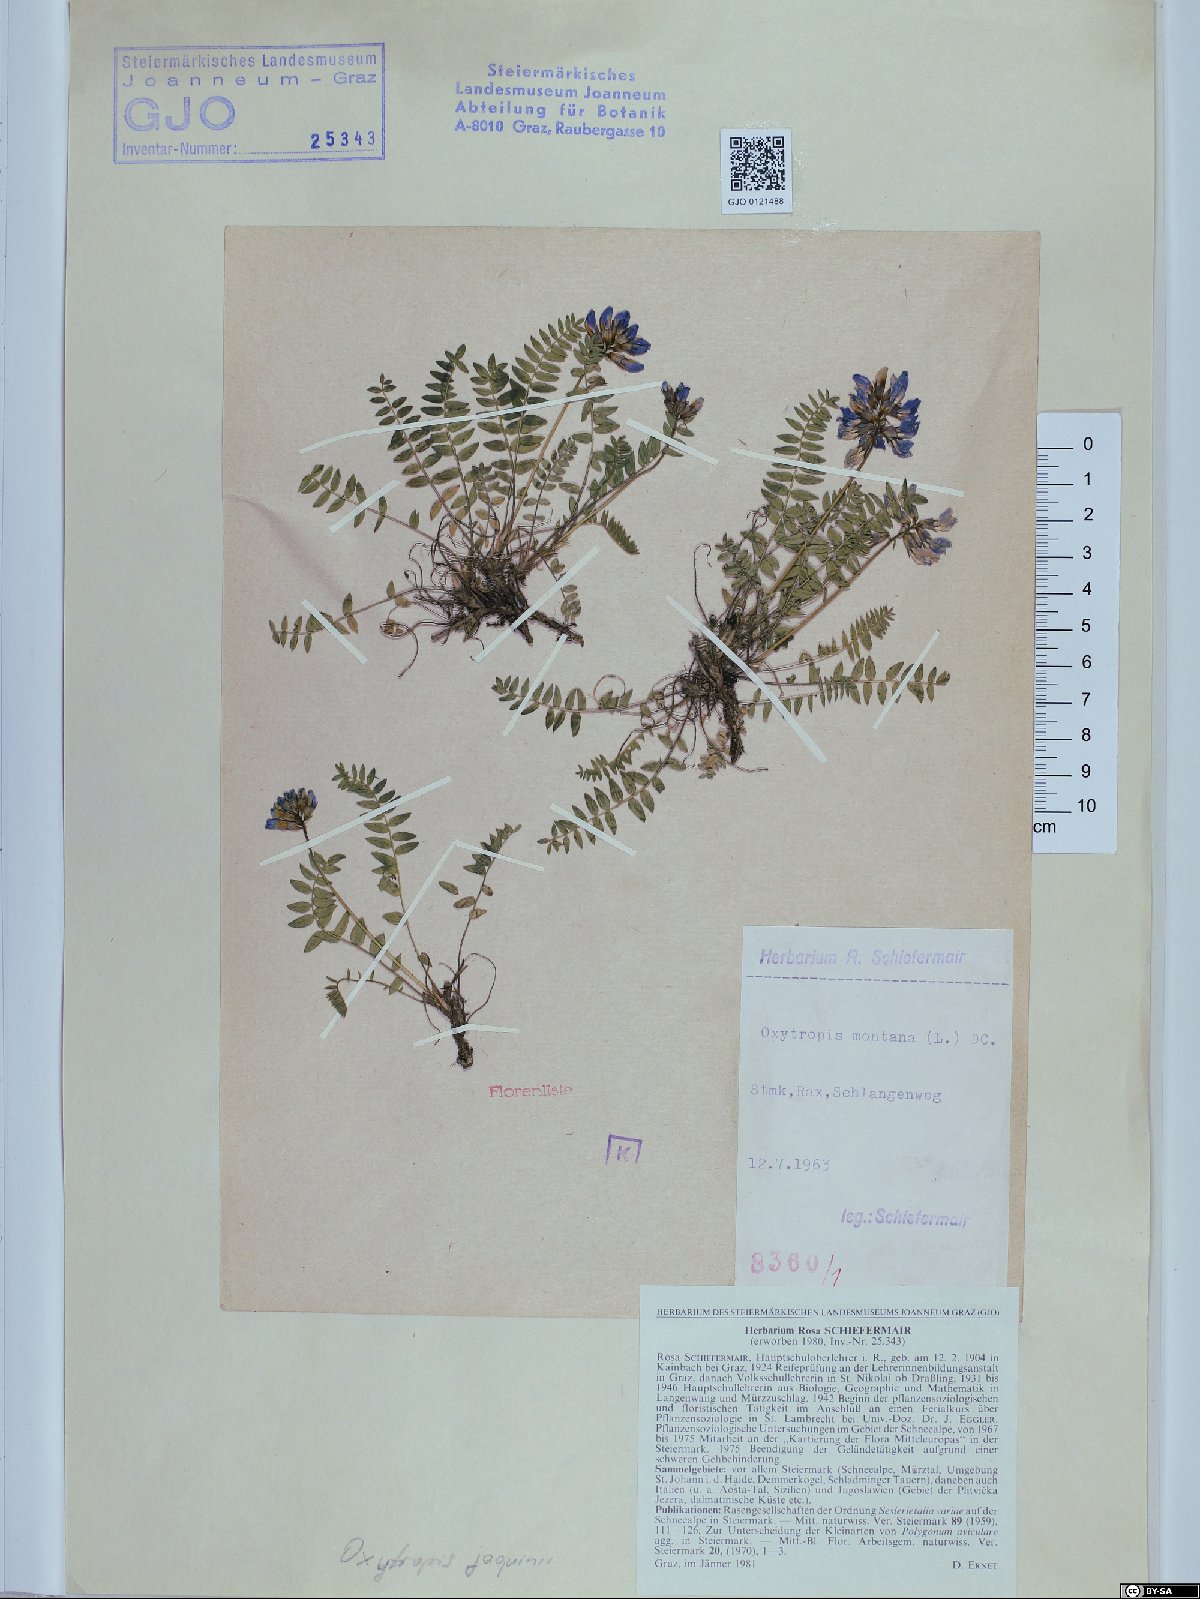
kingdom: Plantae
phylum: Tracheophyta
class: Magnoliopsida
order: Fabales
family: Fabaceae
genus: Oxytropis
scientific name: Oxytropis montana
